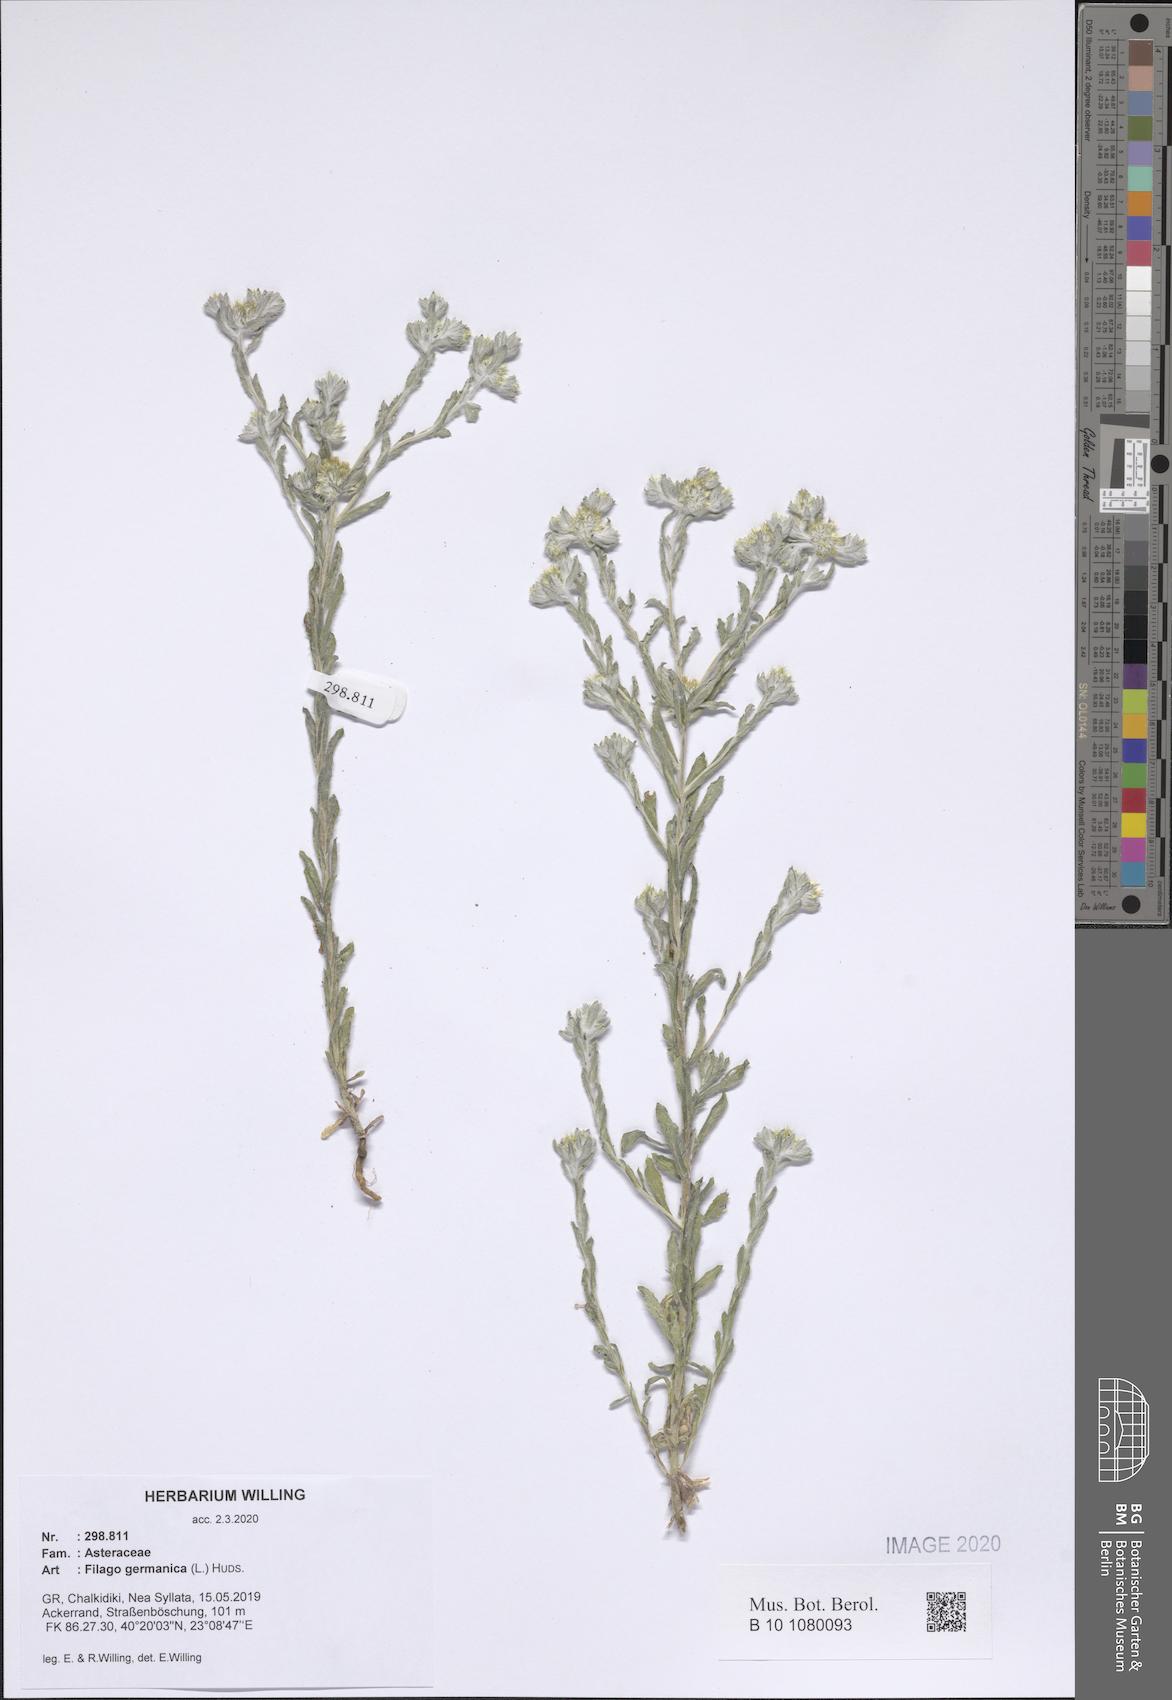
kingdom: Plantae
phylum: Tracheophyta
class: Magnoliopsida
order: Asterales
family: Asteraceae
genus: Filago
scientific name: Filago germanica
